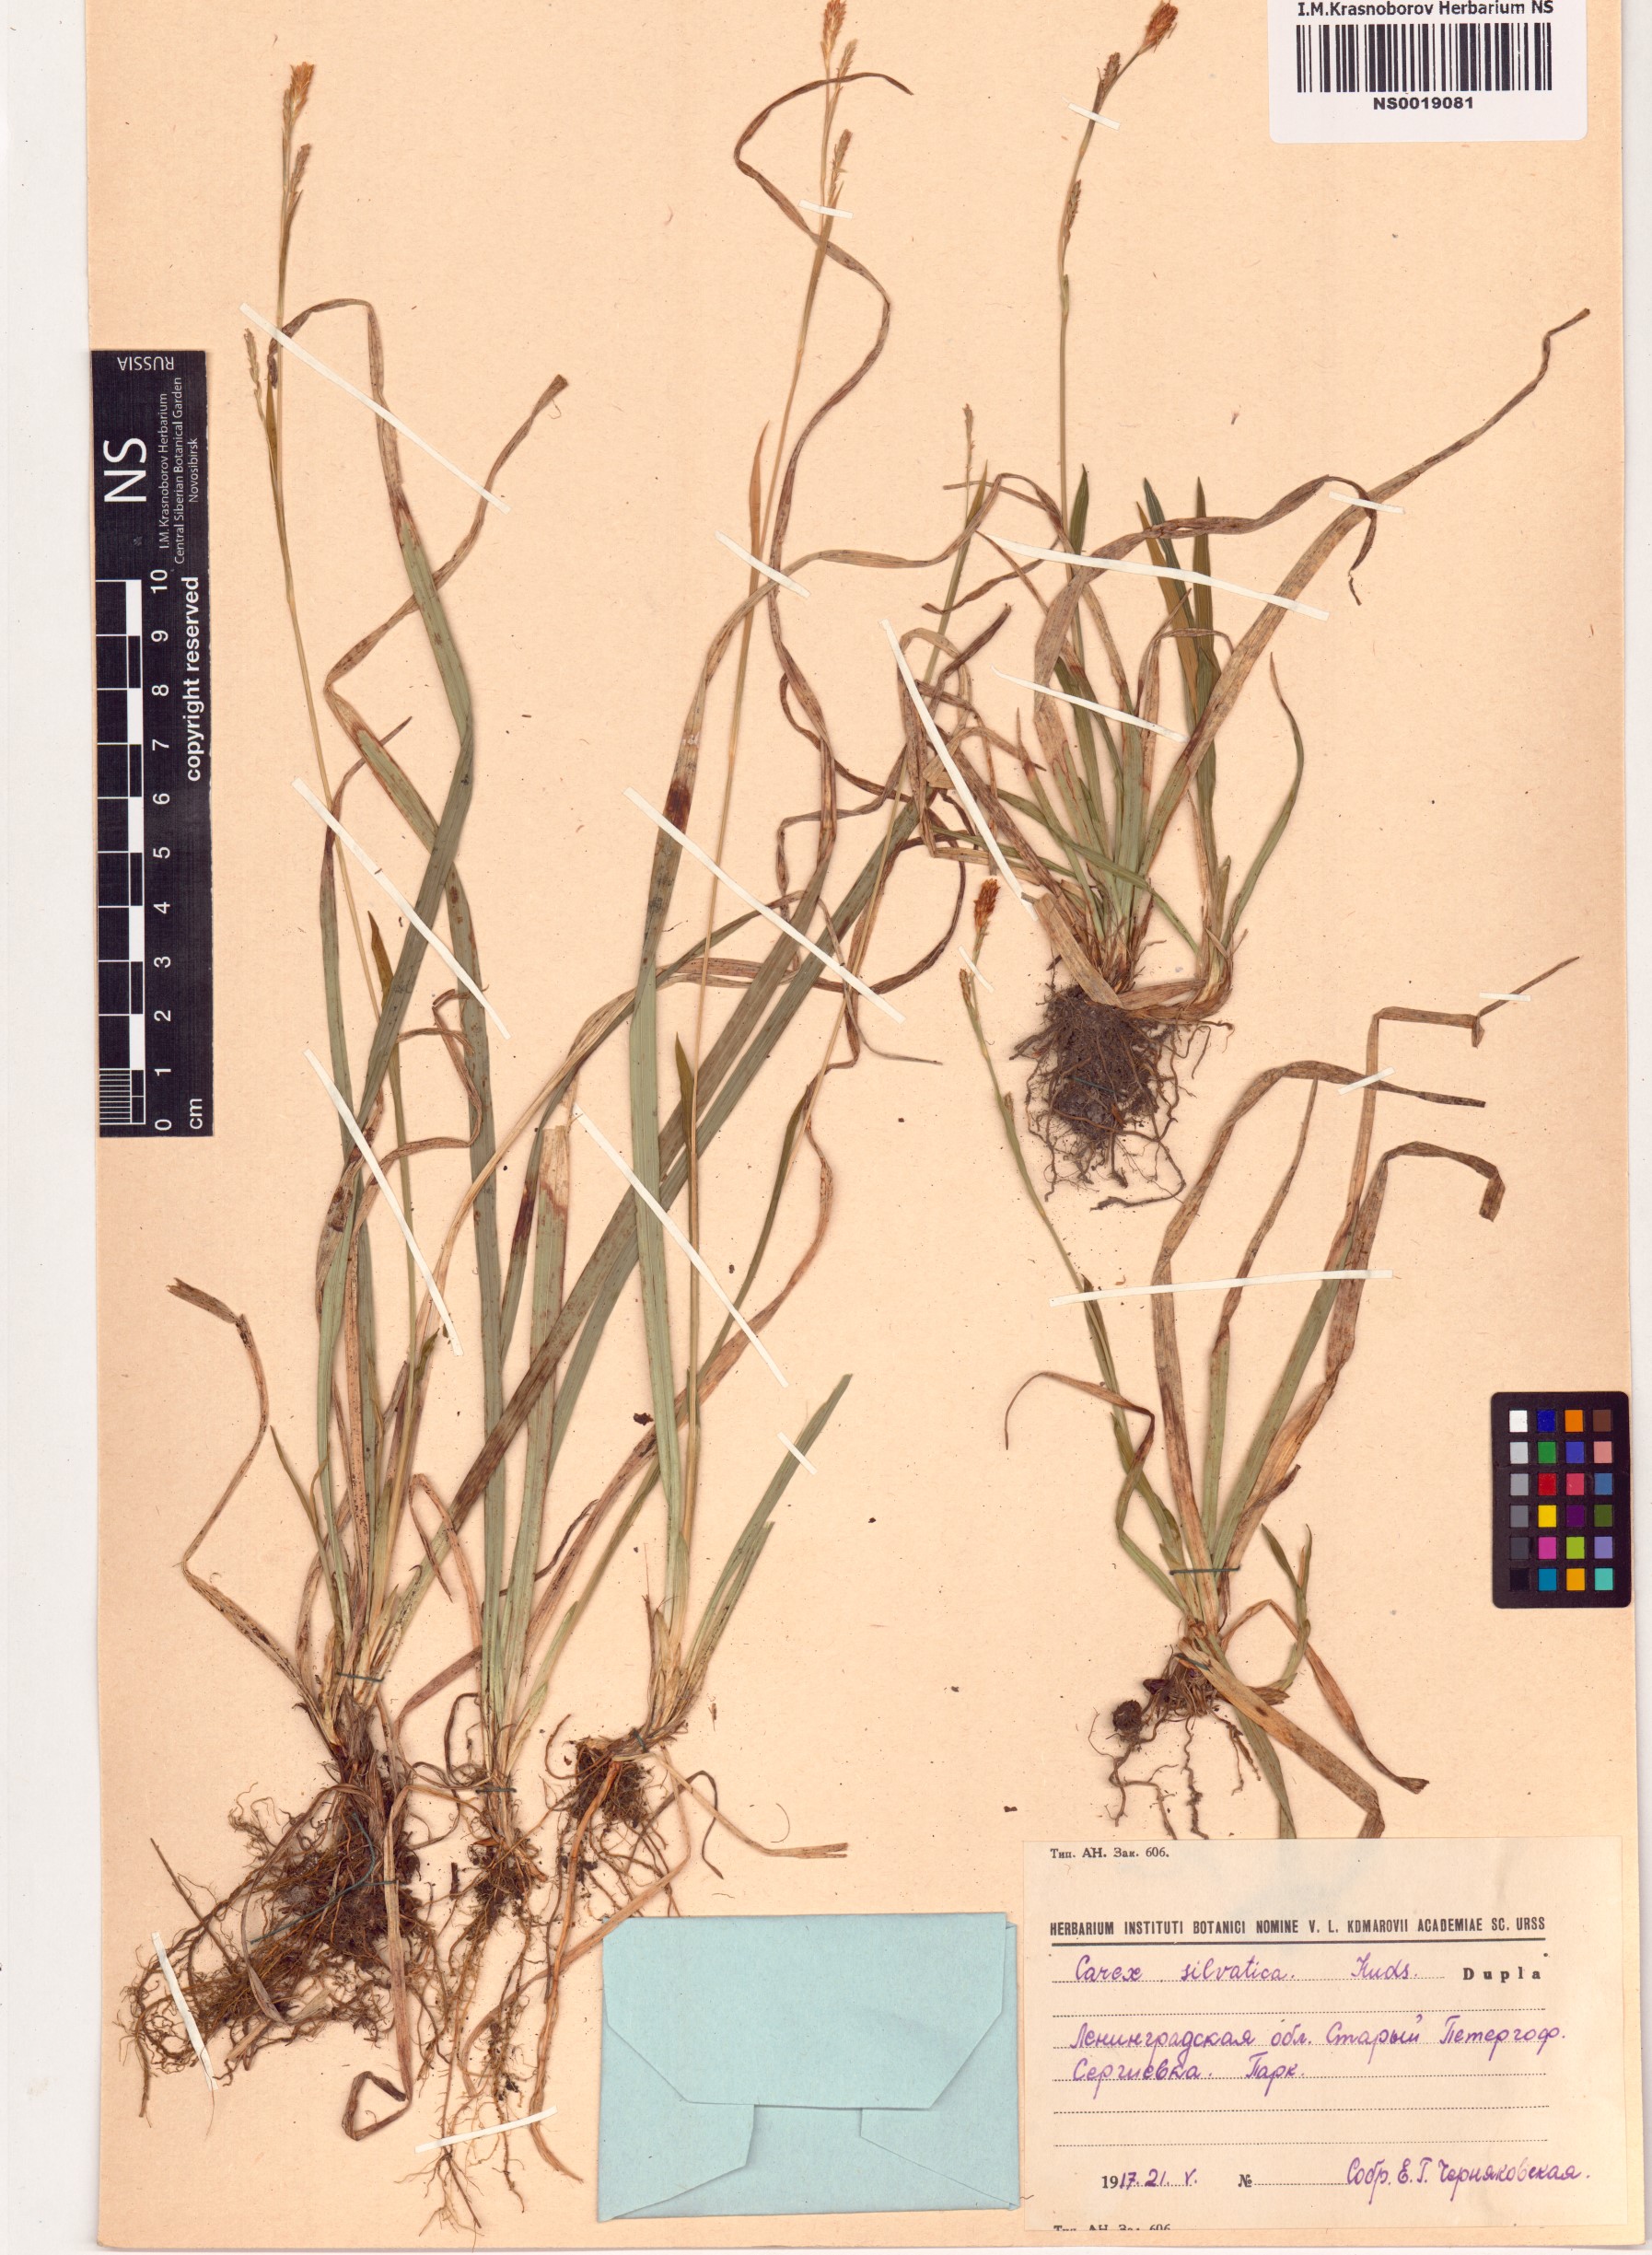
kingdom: Plantae
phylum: Tracheophyta
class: Liliopsida
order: Poales
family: Cyperaceae
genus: Carex
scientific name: Carex sylvatica
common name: Wood-sedge
